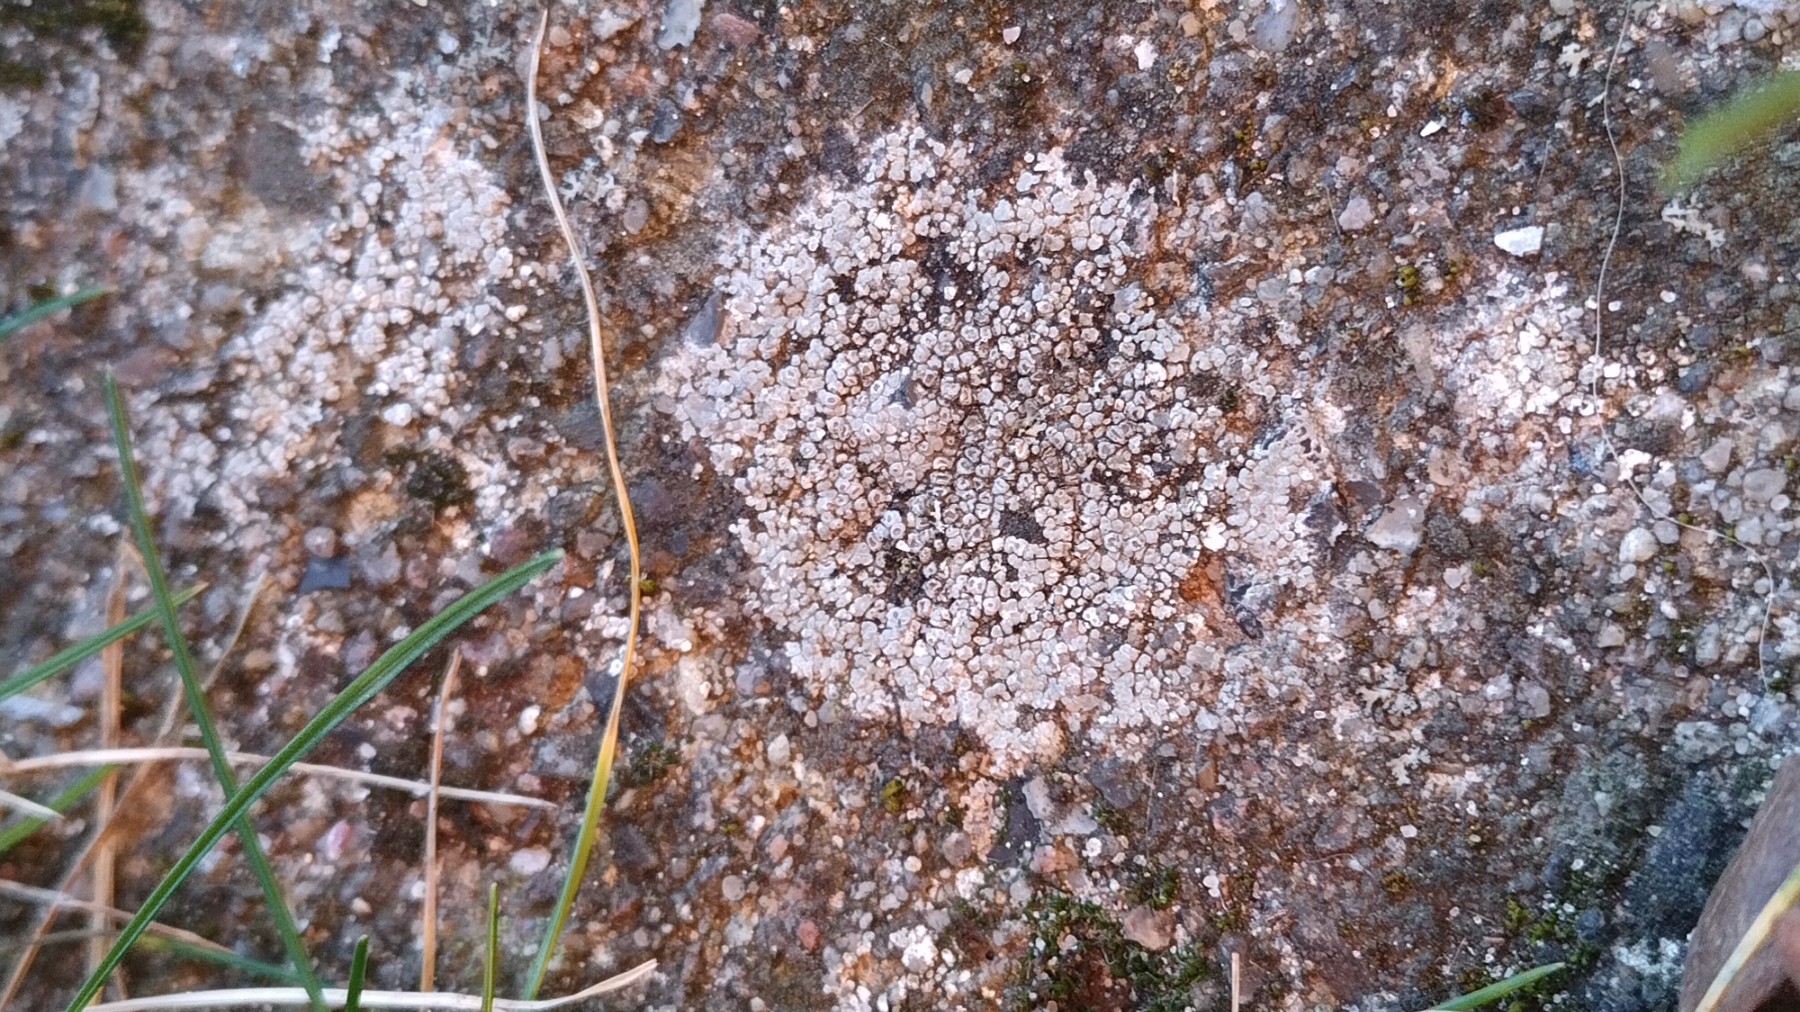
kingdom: Fungi
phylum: Ascomycota
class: Lecanoromycetes
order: Pertusariales
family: Megasporaceae
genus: Circinaria
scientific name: Circinaria contorta
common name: indviklet hulskivelav
